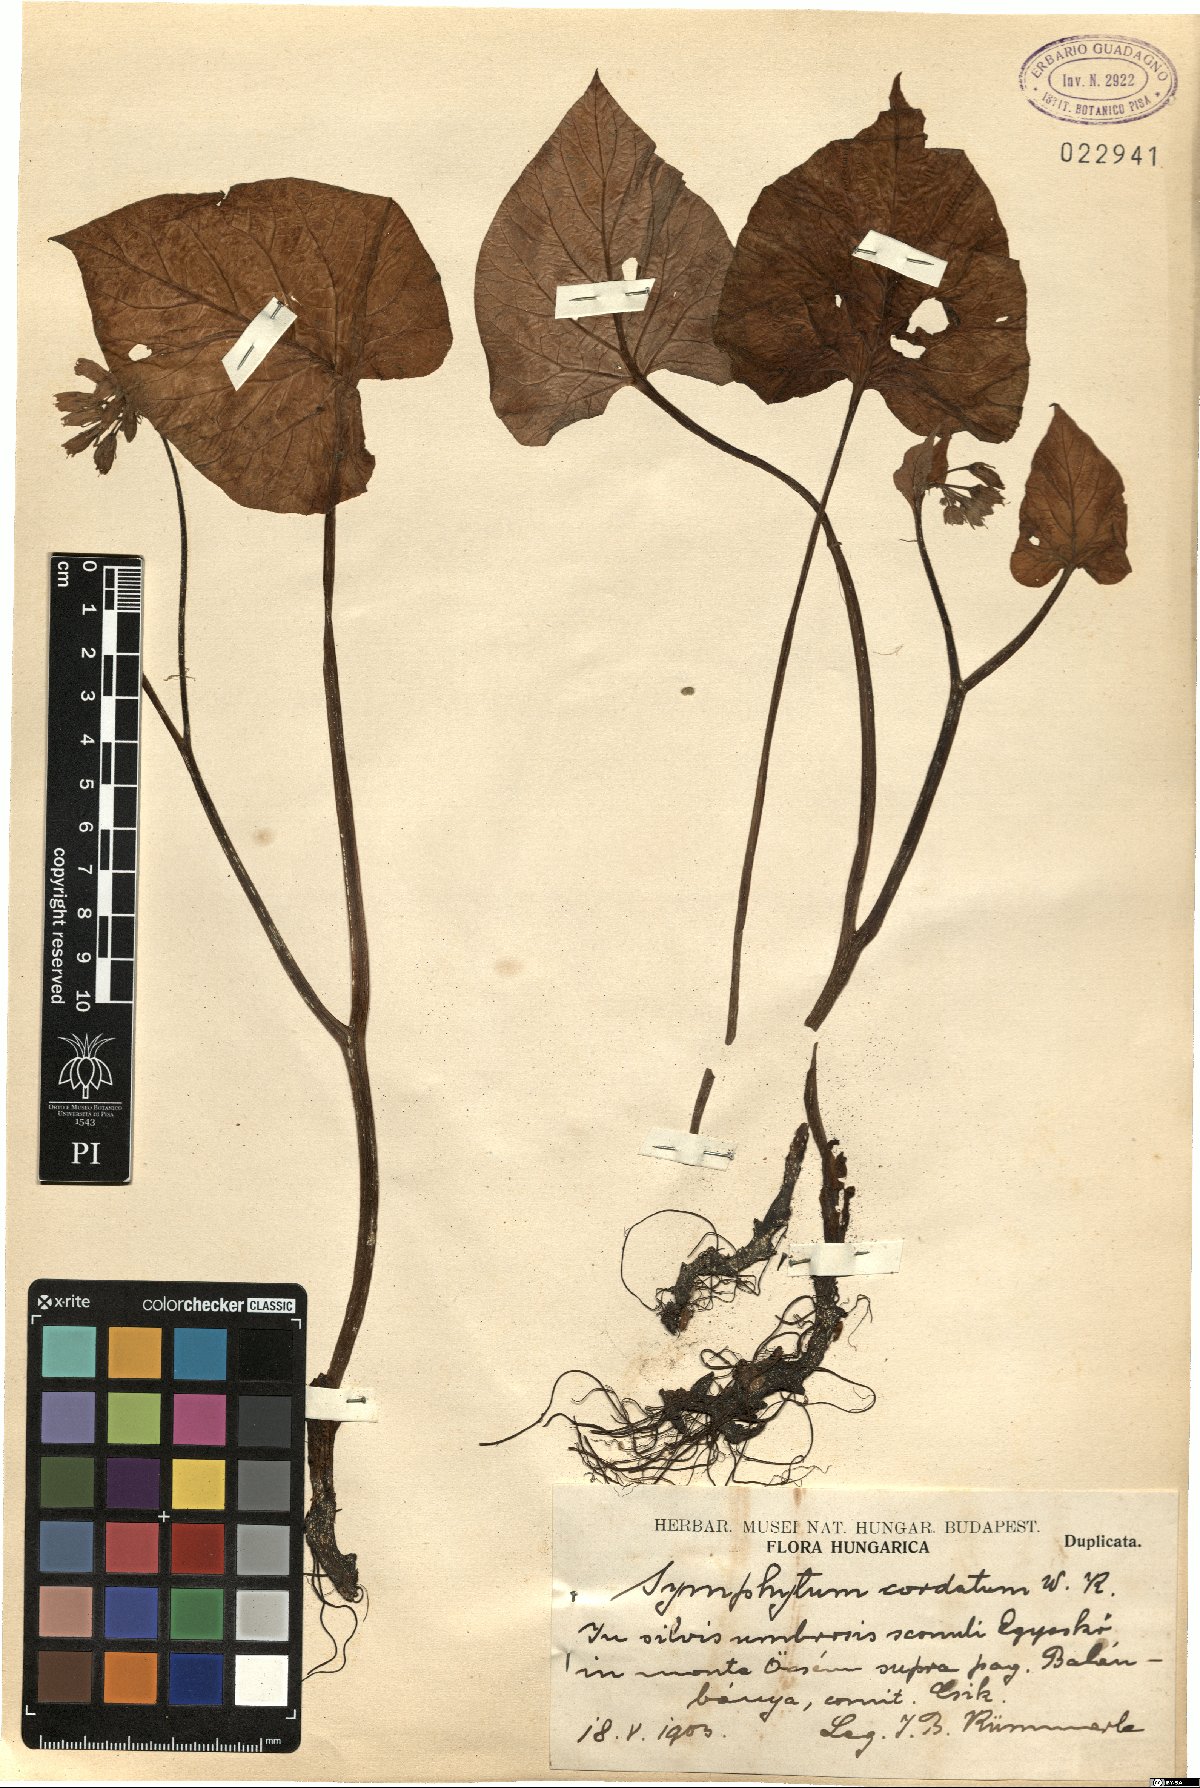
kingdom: Plantae
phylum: Tracheophyta
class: Magnoliopsida
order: Boraginales
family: Boraginaceae
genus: Symphytum
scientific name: Symphytum cordatum
